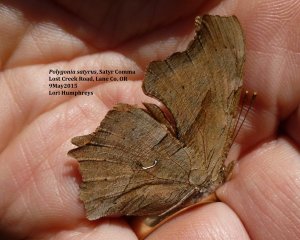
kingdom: Animalia
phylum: Arthropoda
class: Insecta
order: Lepidoptera
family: Nymphalidae
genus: Polygonia
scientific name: Polygonia satyrus
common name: Satyr Comma
